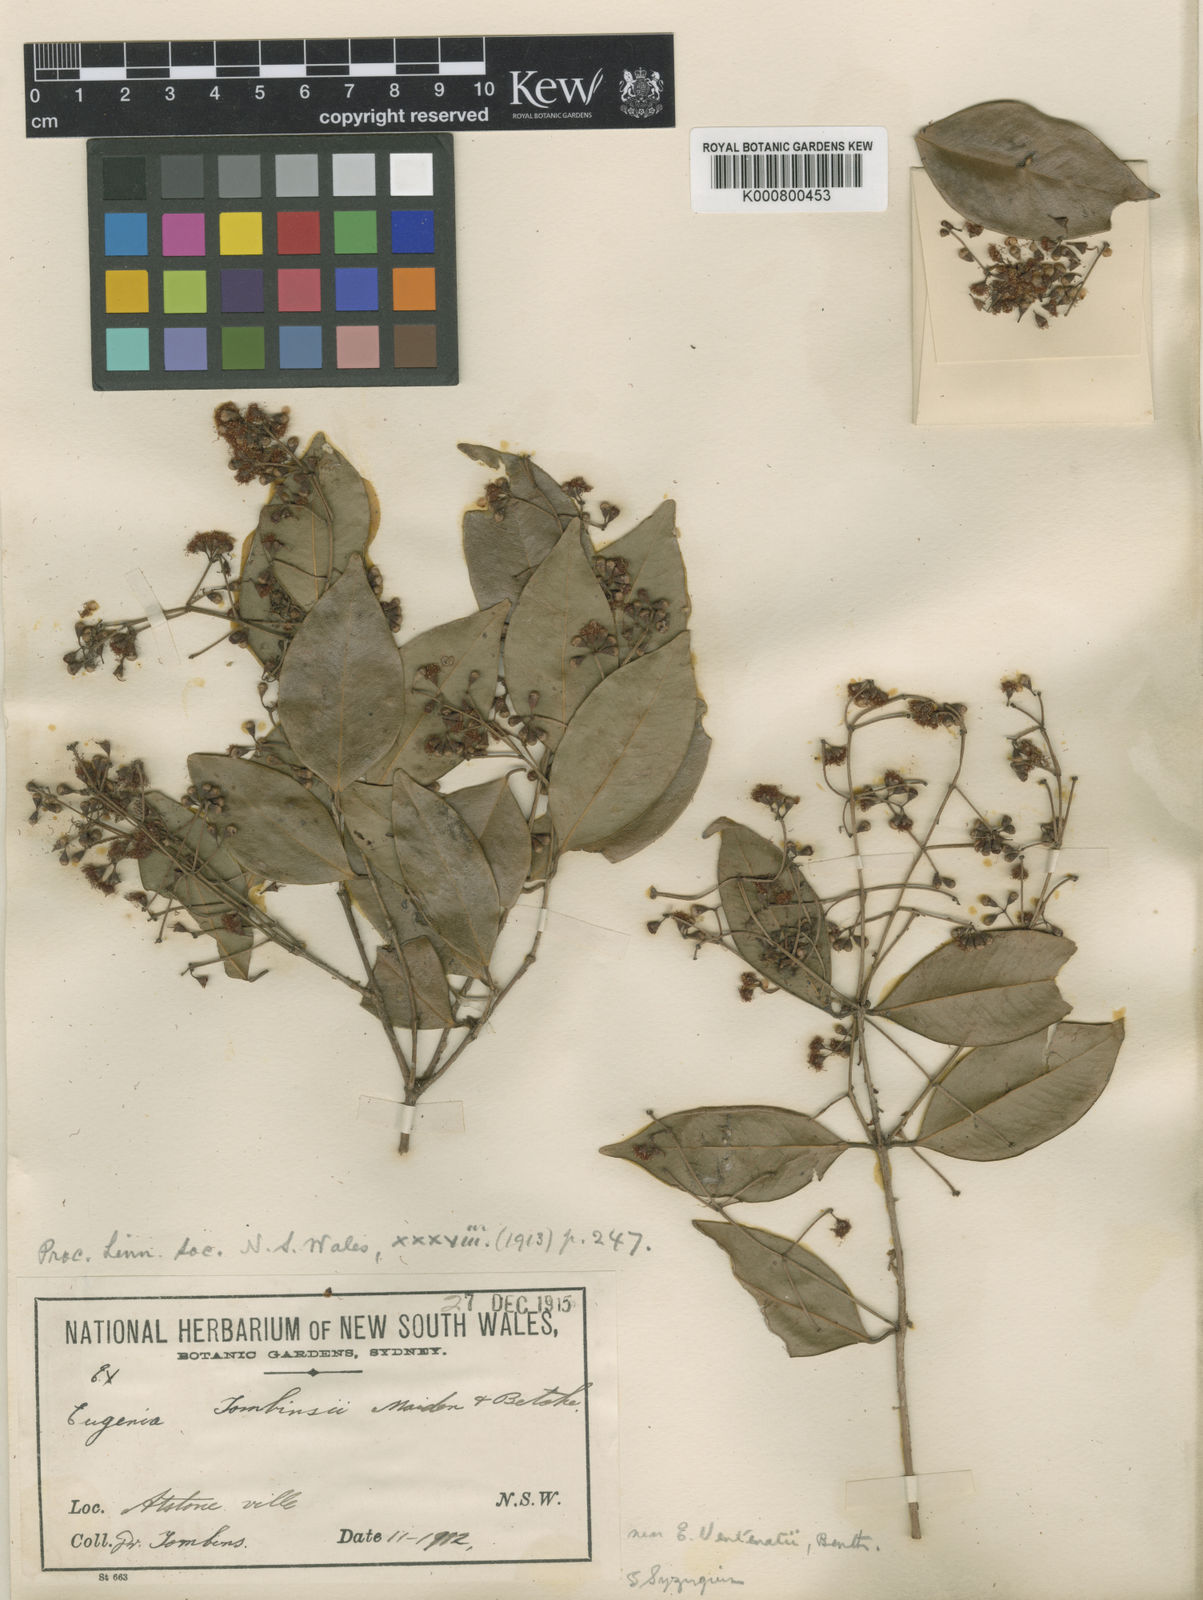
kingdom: Plantae
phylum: Tracheophyta
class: Magnoliopsida
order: Myrtales
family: Myrtaceae
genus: Syzygium
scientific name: Syzygium francisii
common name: Giant water-gum
